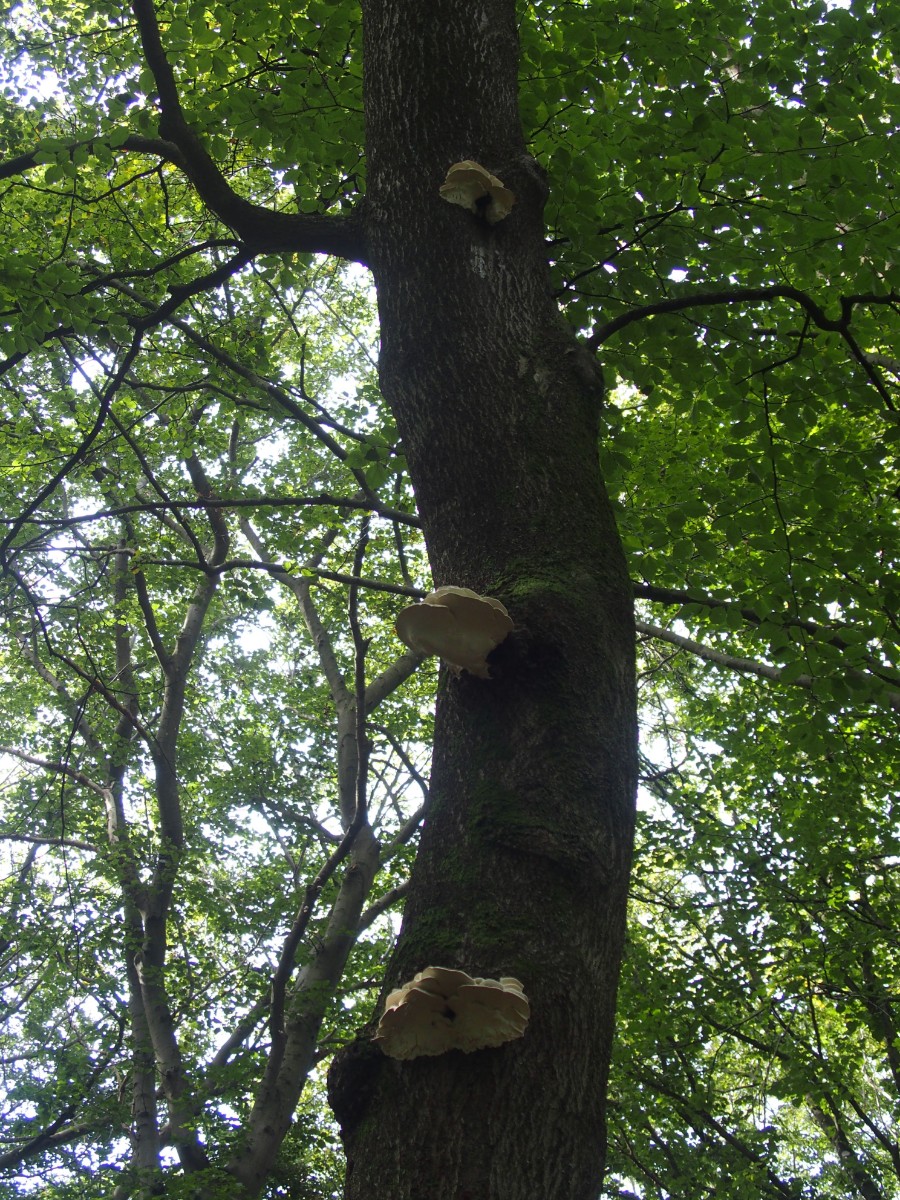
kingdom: Fungi
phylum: Basidiomycota
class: Agaricomycetes
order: Polyporales
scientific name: Polyporales
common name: poresvampordenen
